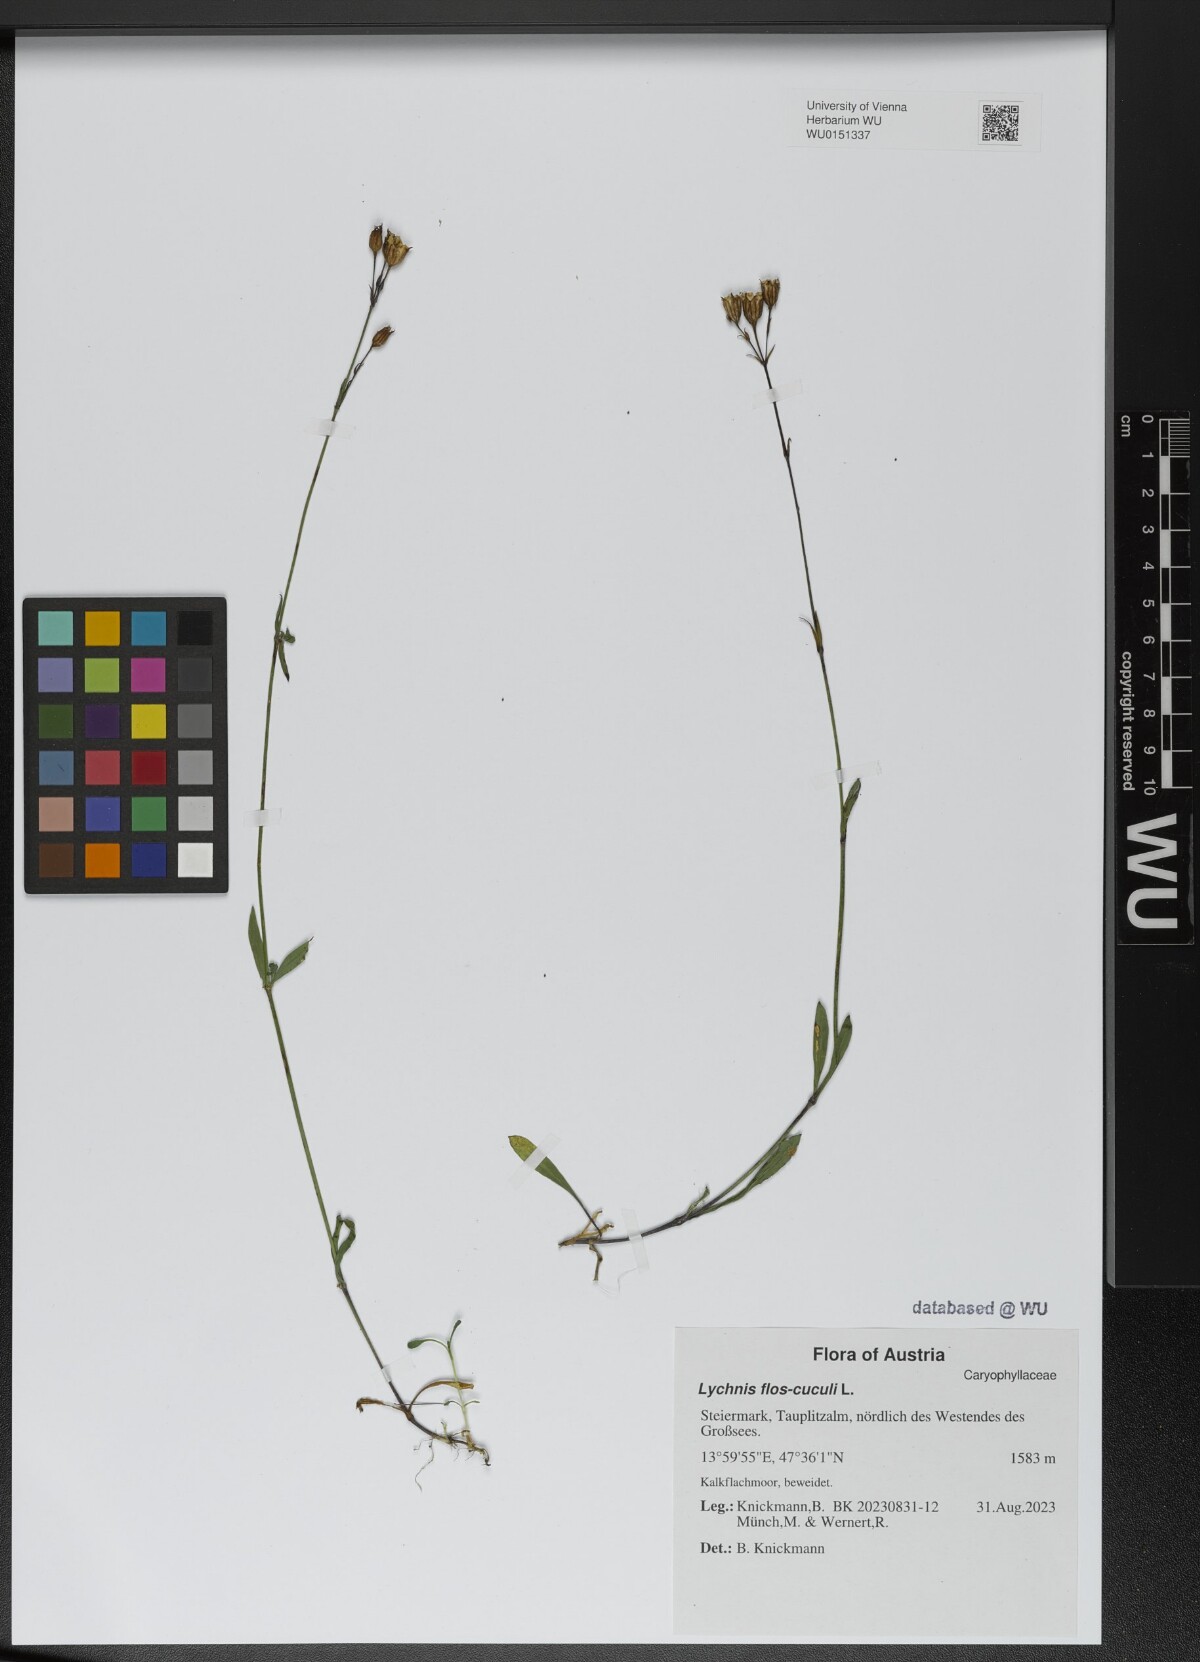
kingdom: Plantae
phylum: Tracheophyta
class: Magnoliopsida
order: Caryophyllales
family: Caryophyllaceae
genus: Silene
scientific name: Silene flos-cuculi
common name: Ragged-robin
